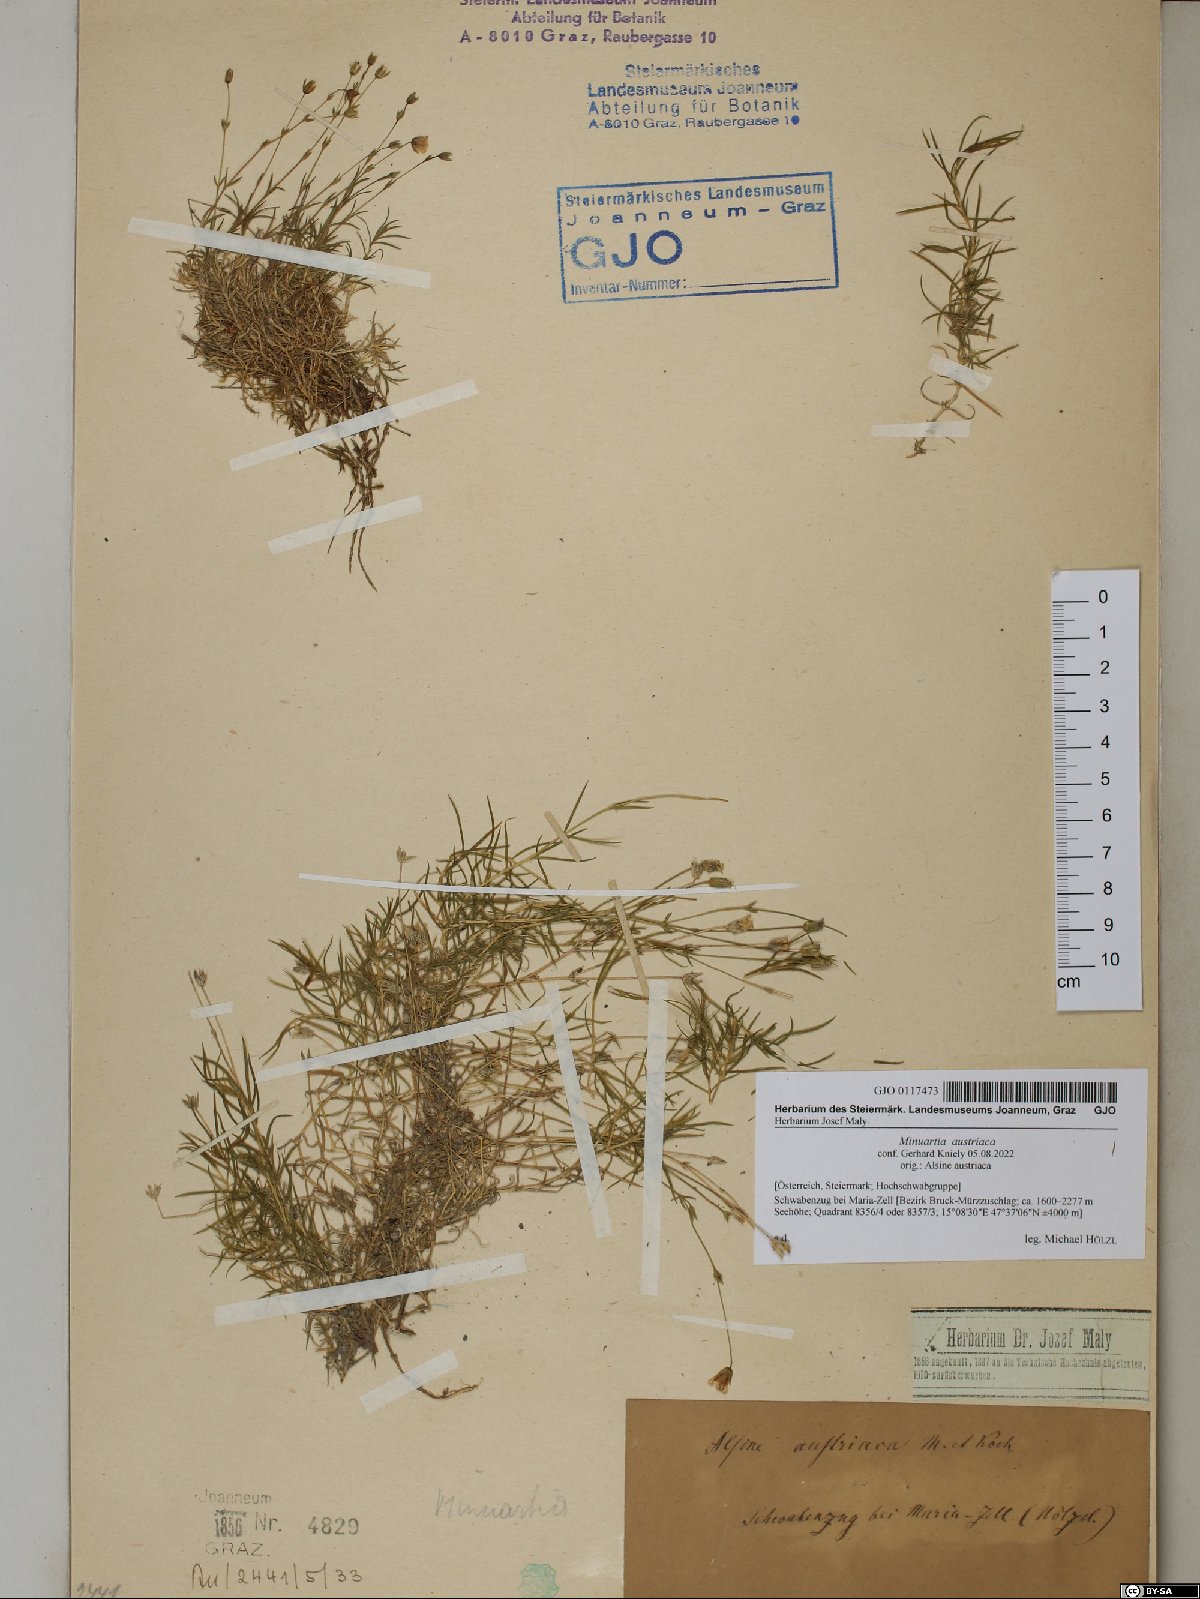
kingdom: Plantae
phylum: Tracheophyta
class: Magnoliopsida
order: Caryophyllales
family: Caryophyllaceae
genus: Sabulina
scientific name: Sabulina austriaca
